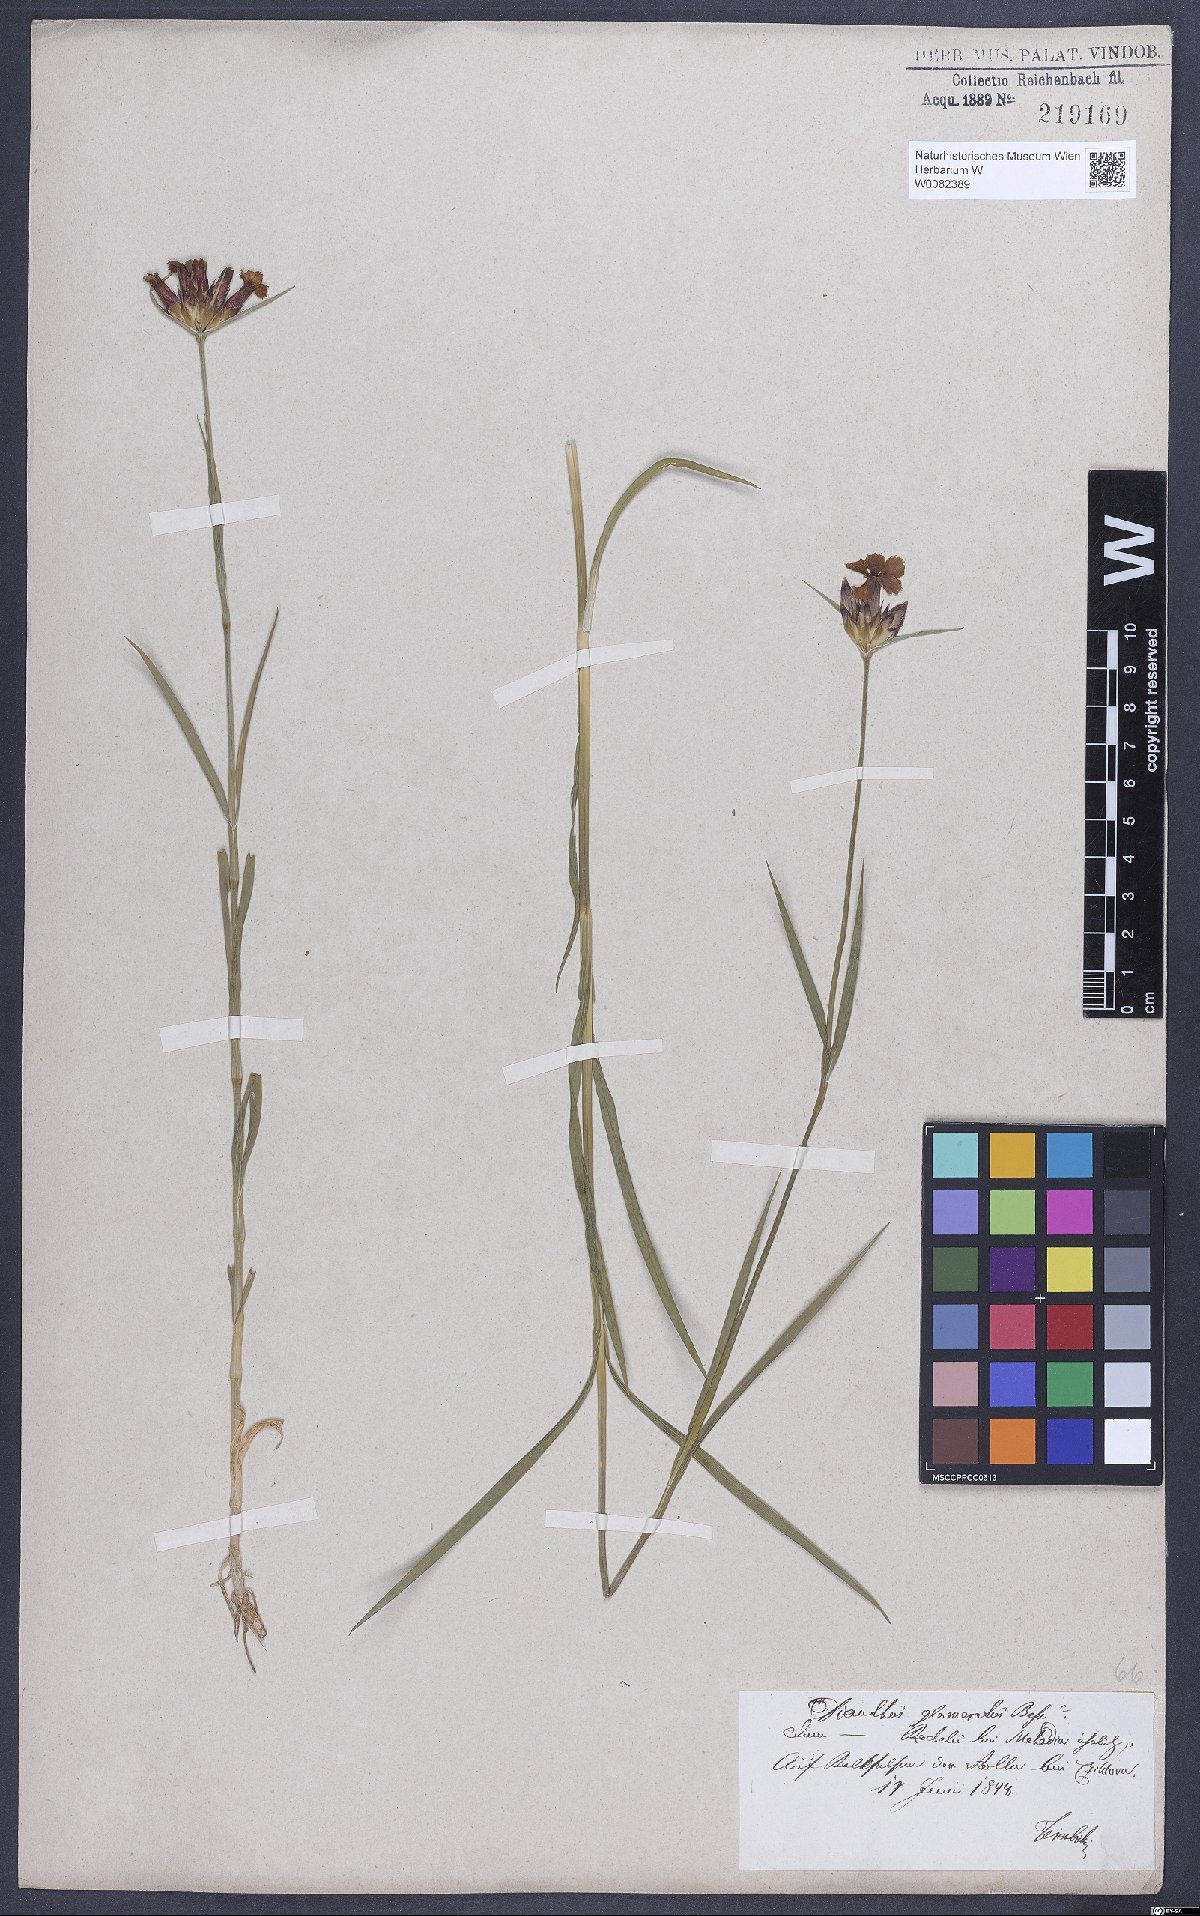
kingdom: Plantae
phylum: Tracheophyta
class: Magnoliopsida
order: Caryophyllales
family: Caryophyllaceae
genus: Dianthus
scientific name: Dianthus carthusianorum
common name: Carthusian pink
